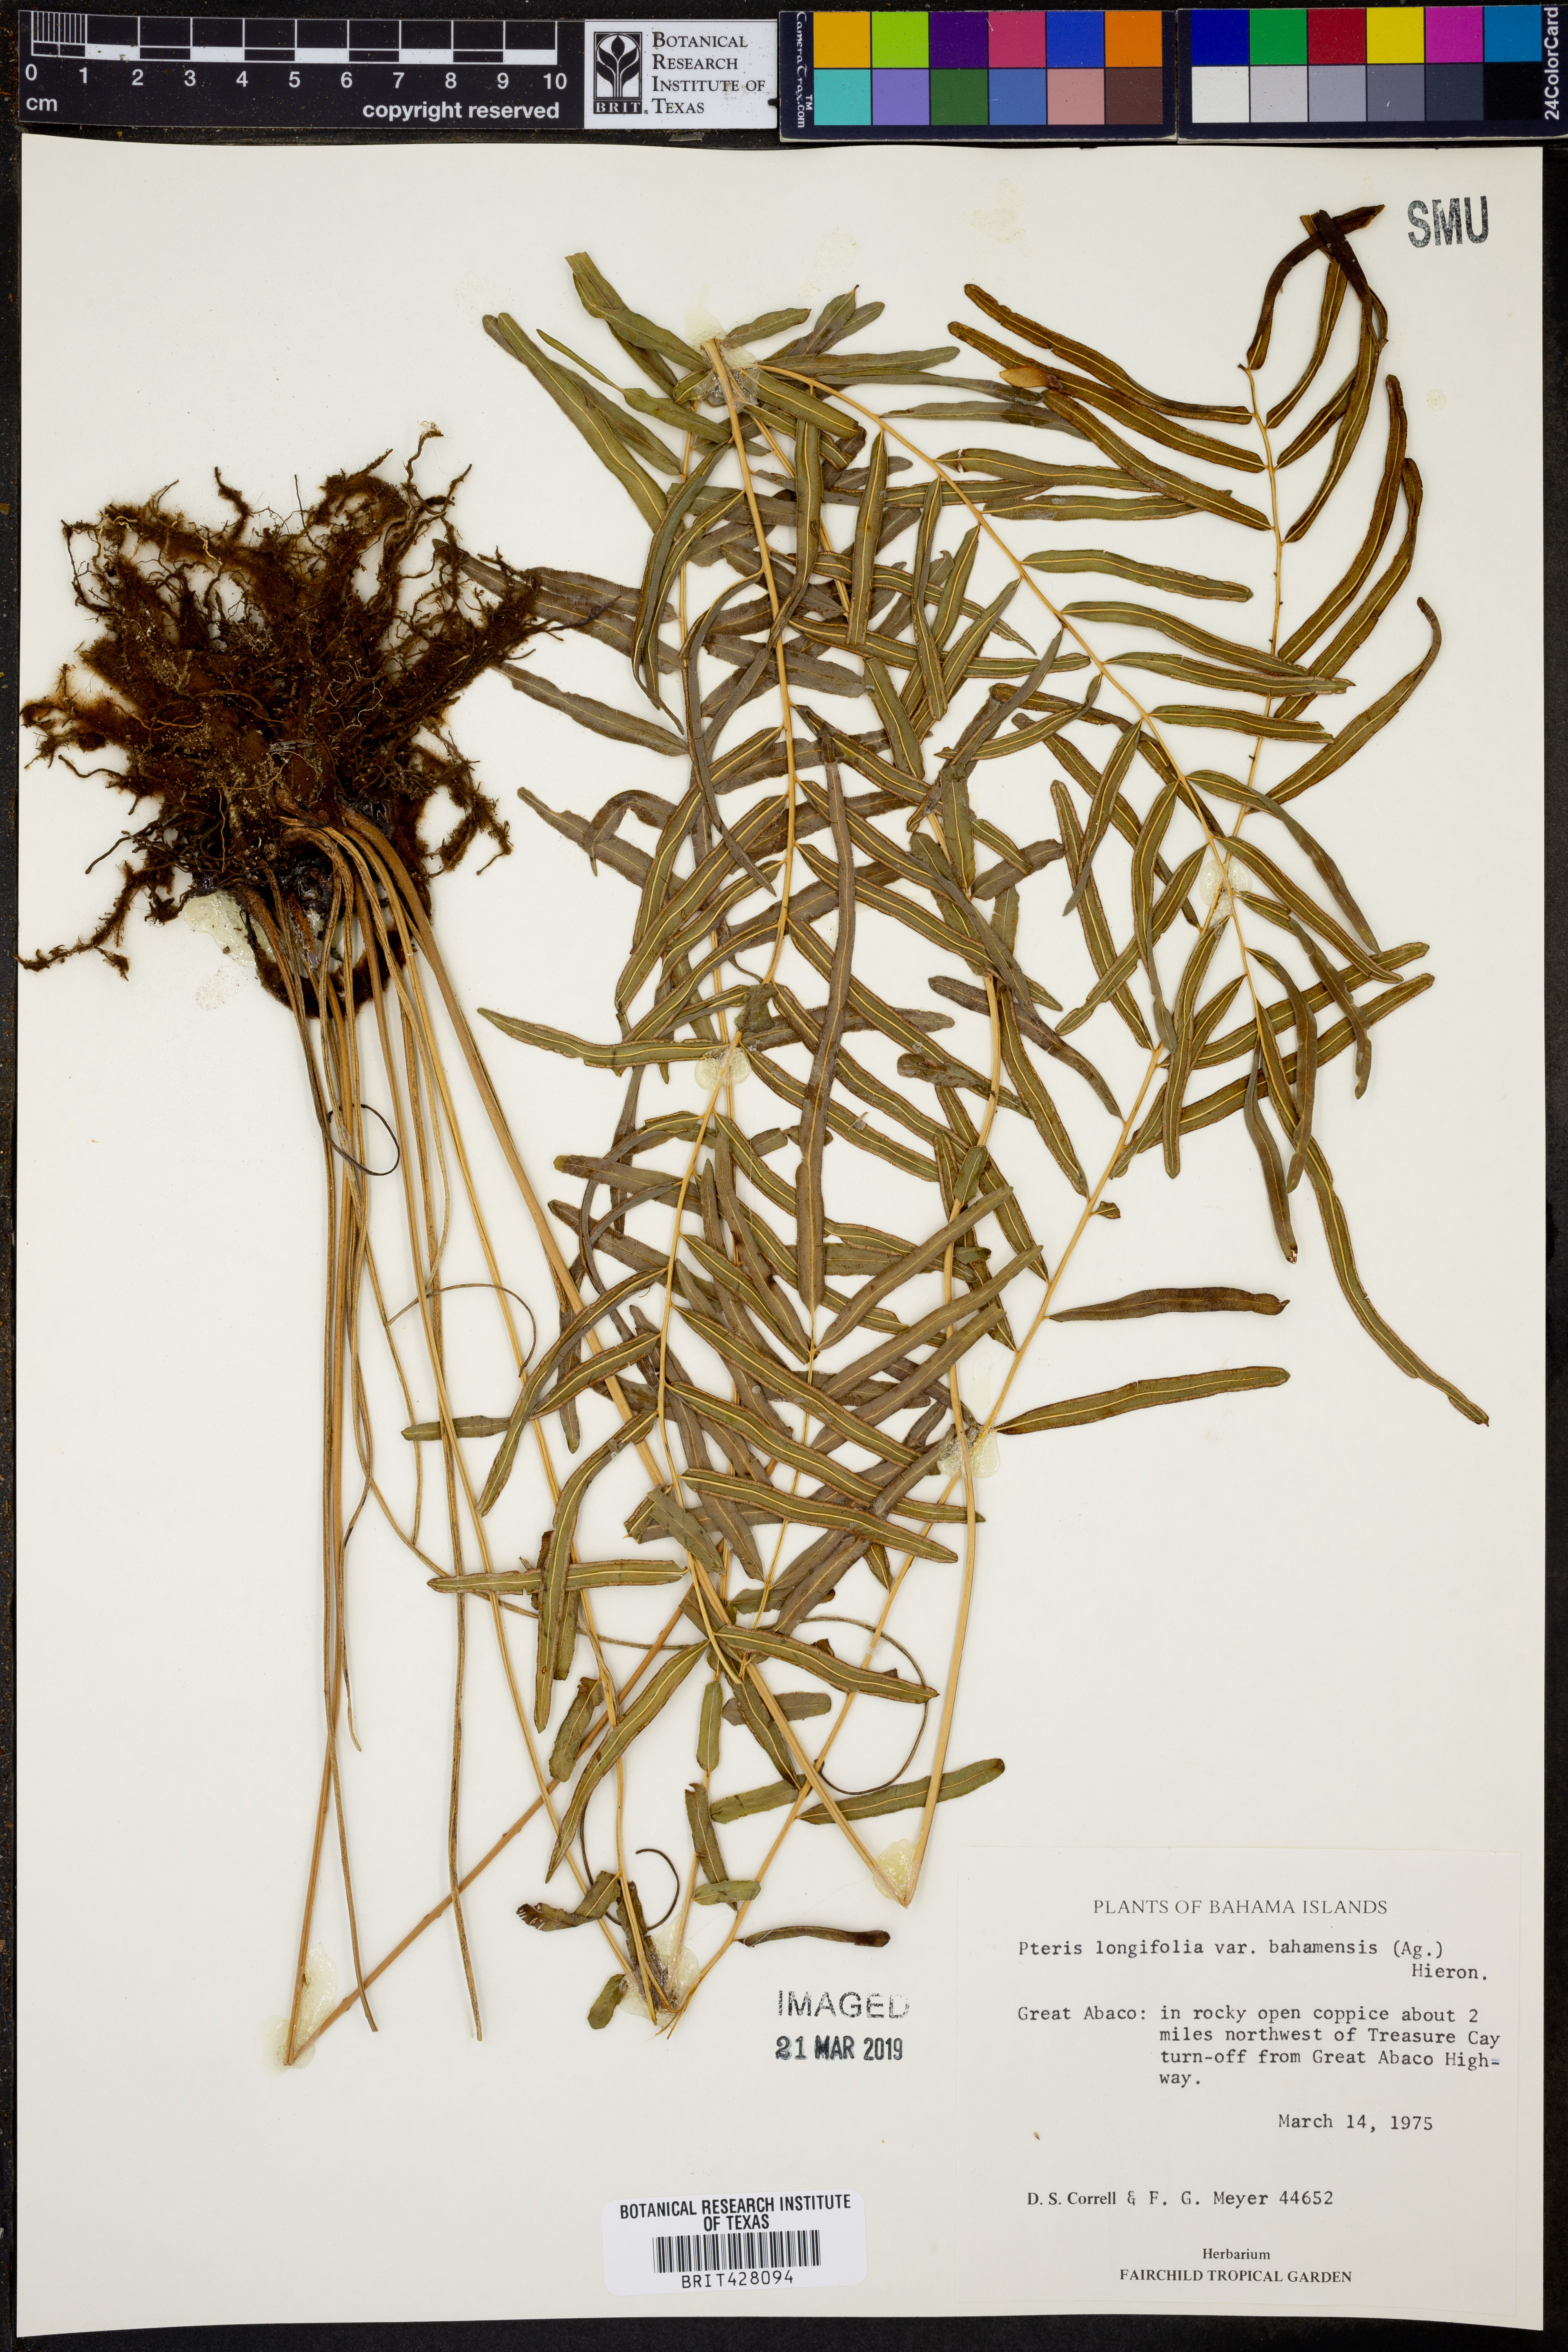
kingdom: Plantae
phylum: Tracheophyta
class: Polypodiopsida
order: Polypodiales
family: Pteridaceae
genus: Pteris
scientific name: Pteris bahamensis
